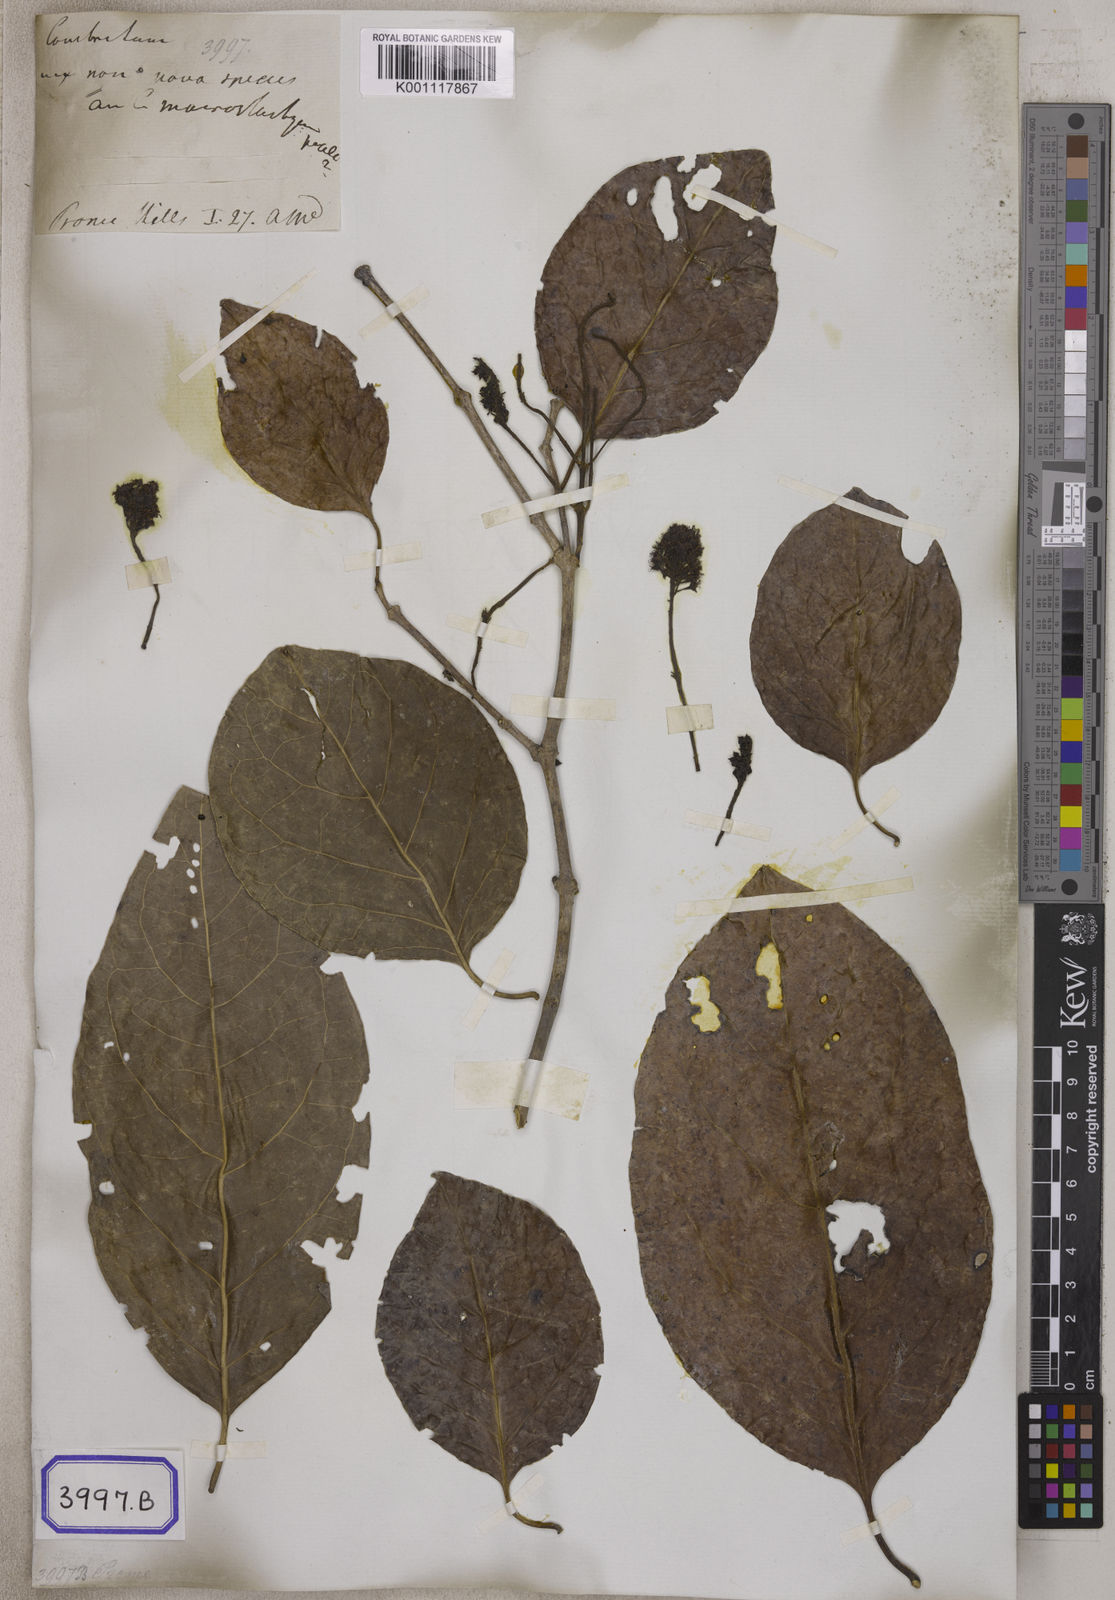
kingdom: Plantae
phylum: Tracheophyta
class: Magnoliopsida
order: Myrtales
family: Combretaceae
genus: Combretum
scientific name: Combretum latifolium
